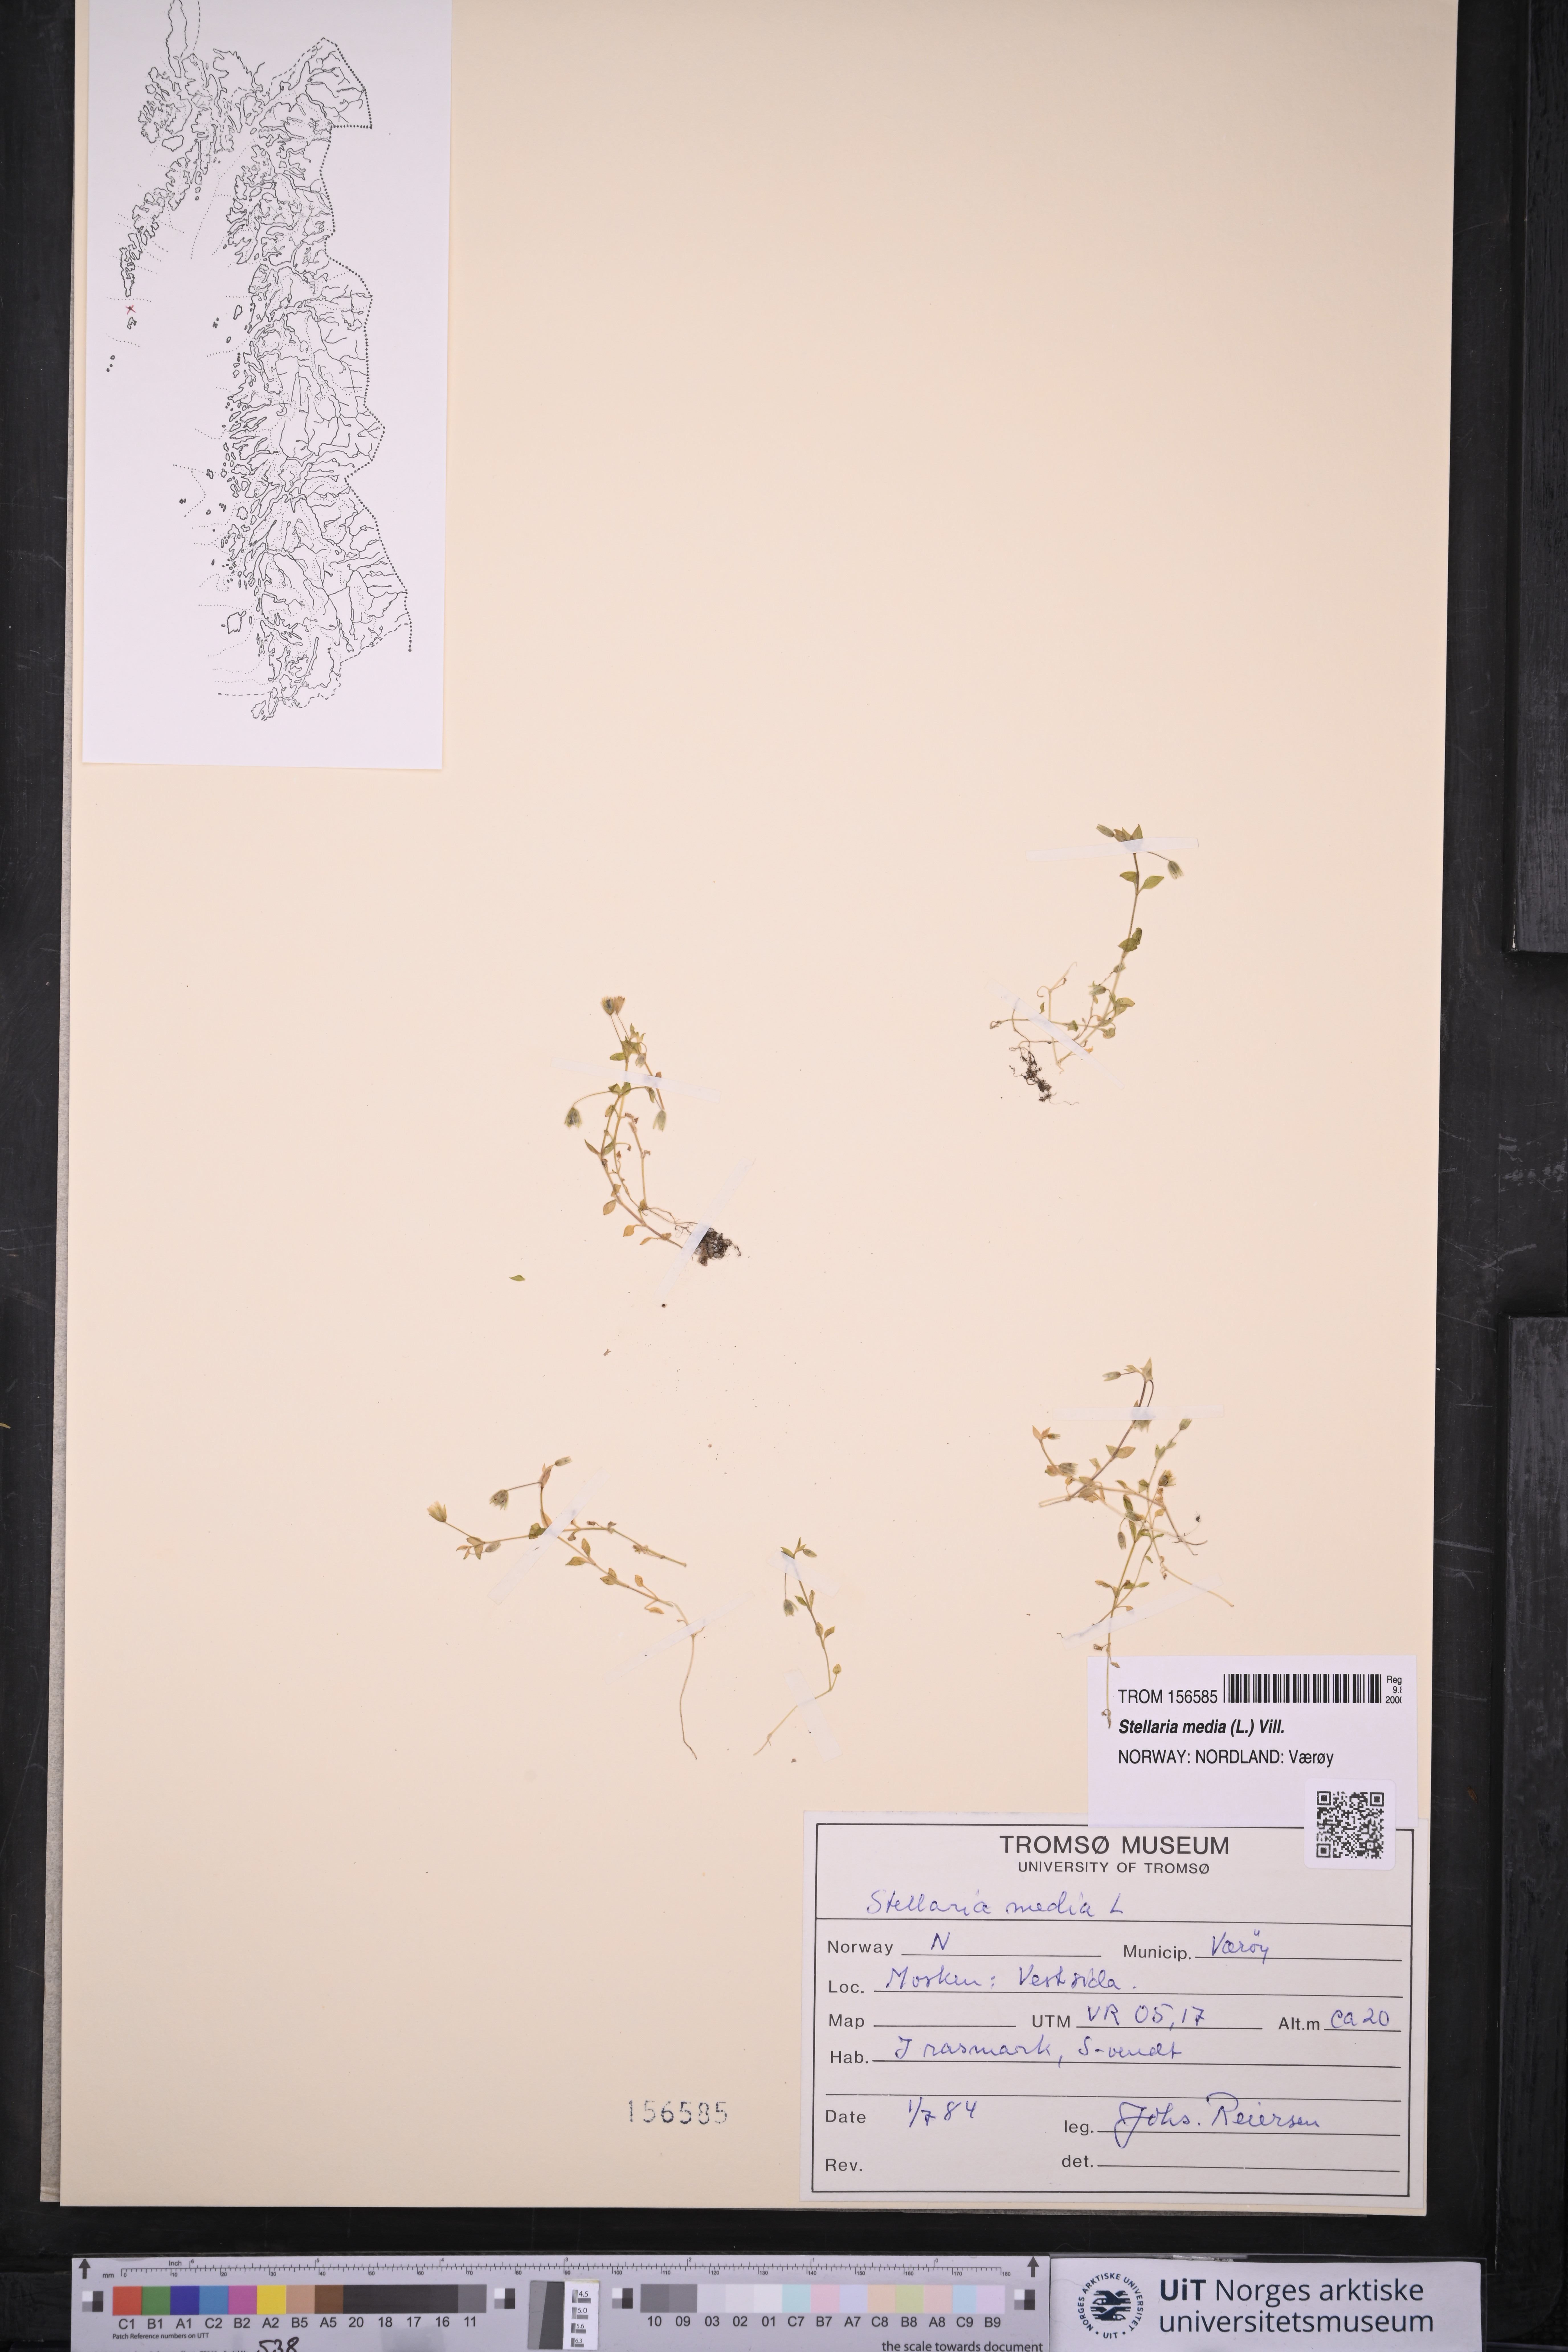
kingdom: Plantae
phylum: Tracheophyta
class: Magnoliopsida
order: Caryophyllales
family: Caryophyllaceae
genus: Stellaria
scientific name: Stellaria media
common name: Common chickweed
